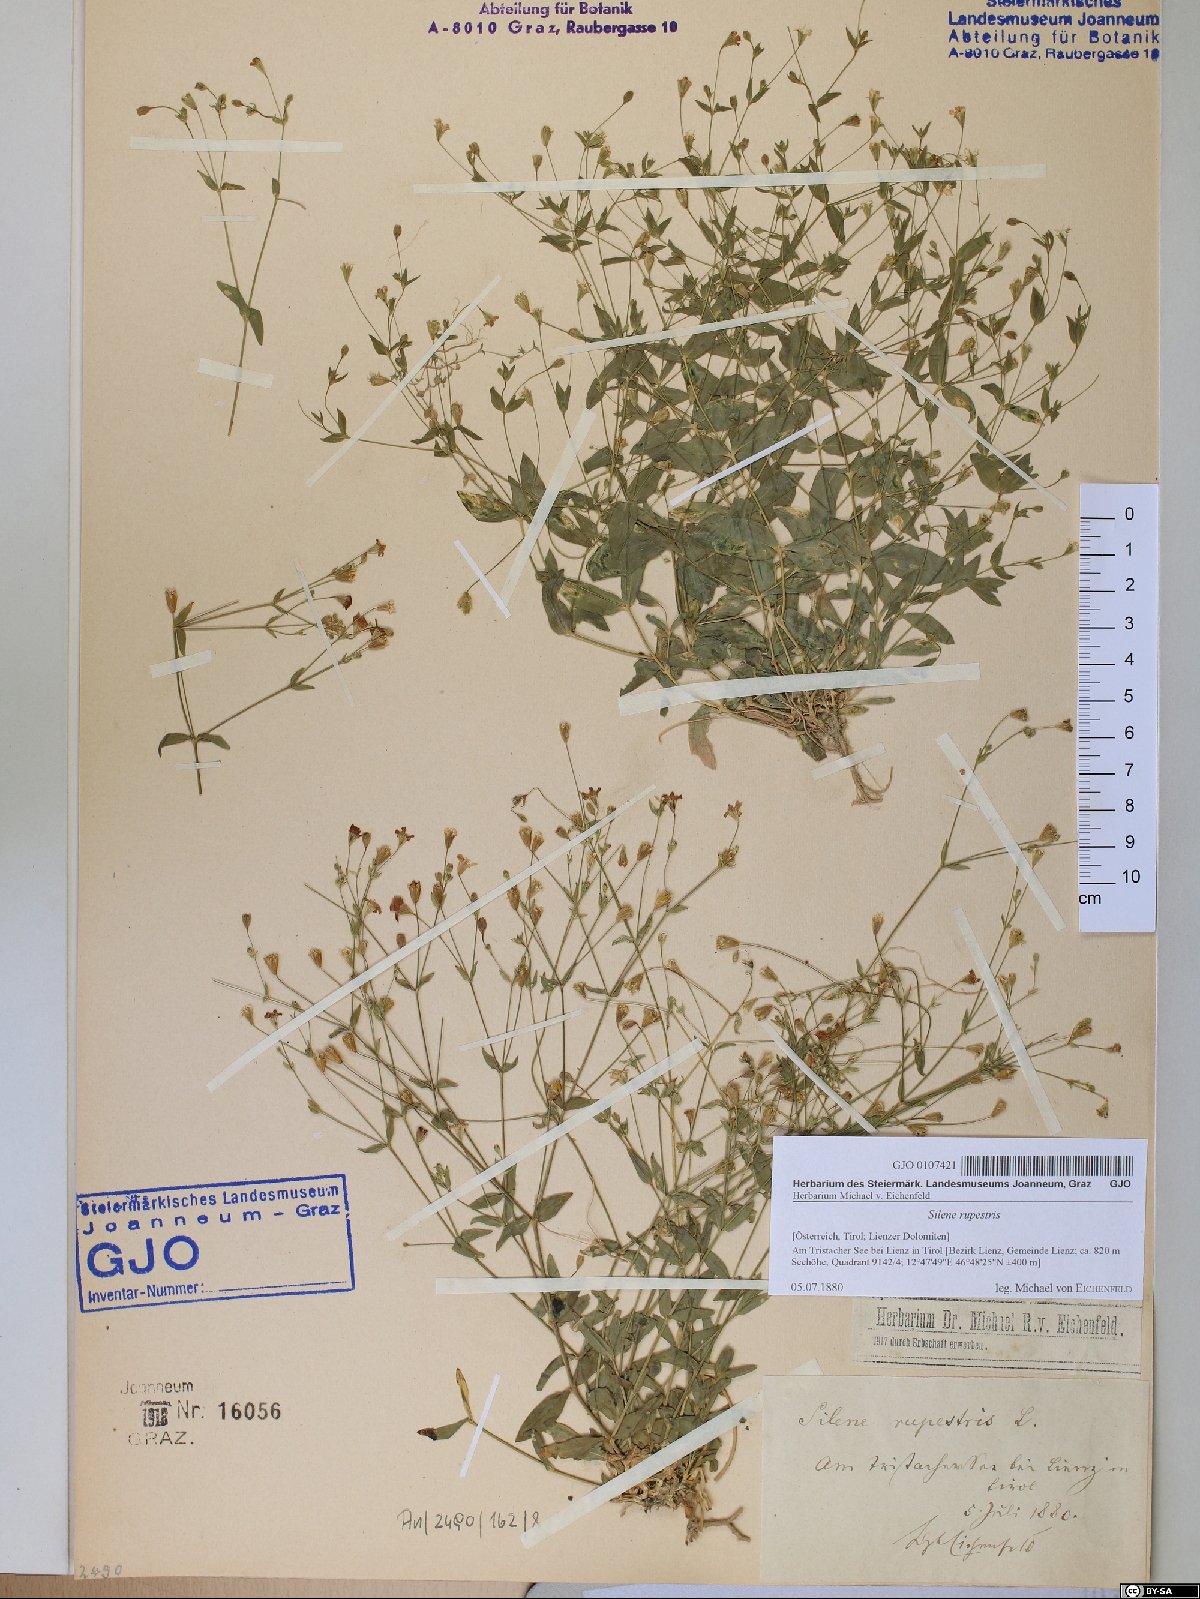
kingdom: Plantae
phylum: Tracheophyta
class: Magnoliopsida
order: Caryophyllales
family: Caryophyllaceae
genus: Atocion
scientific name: Atocion rupestre
